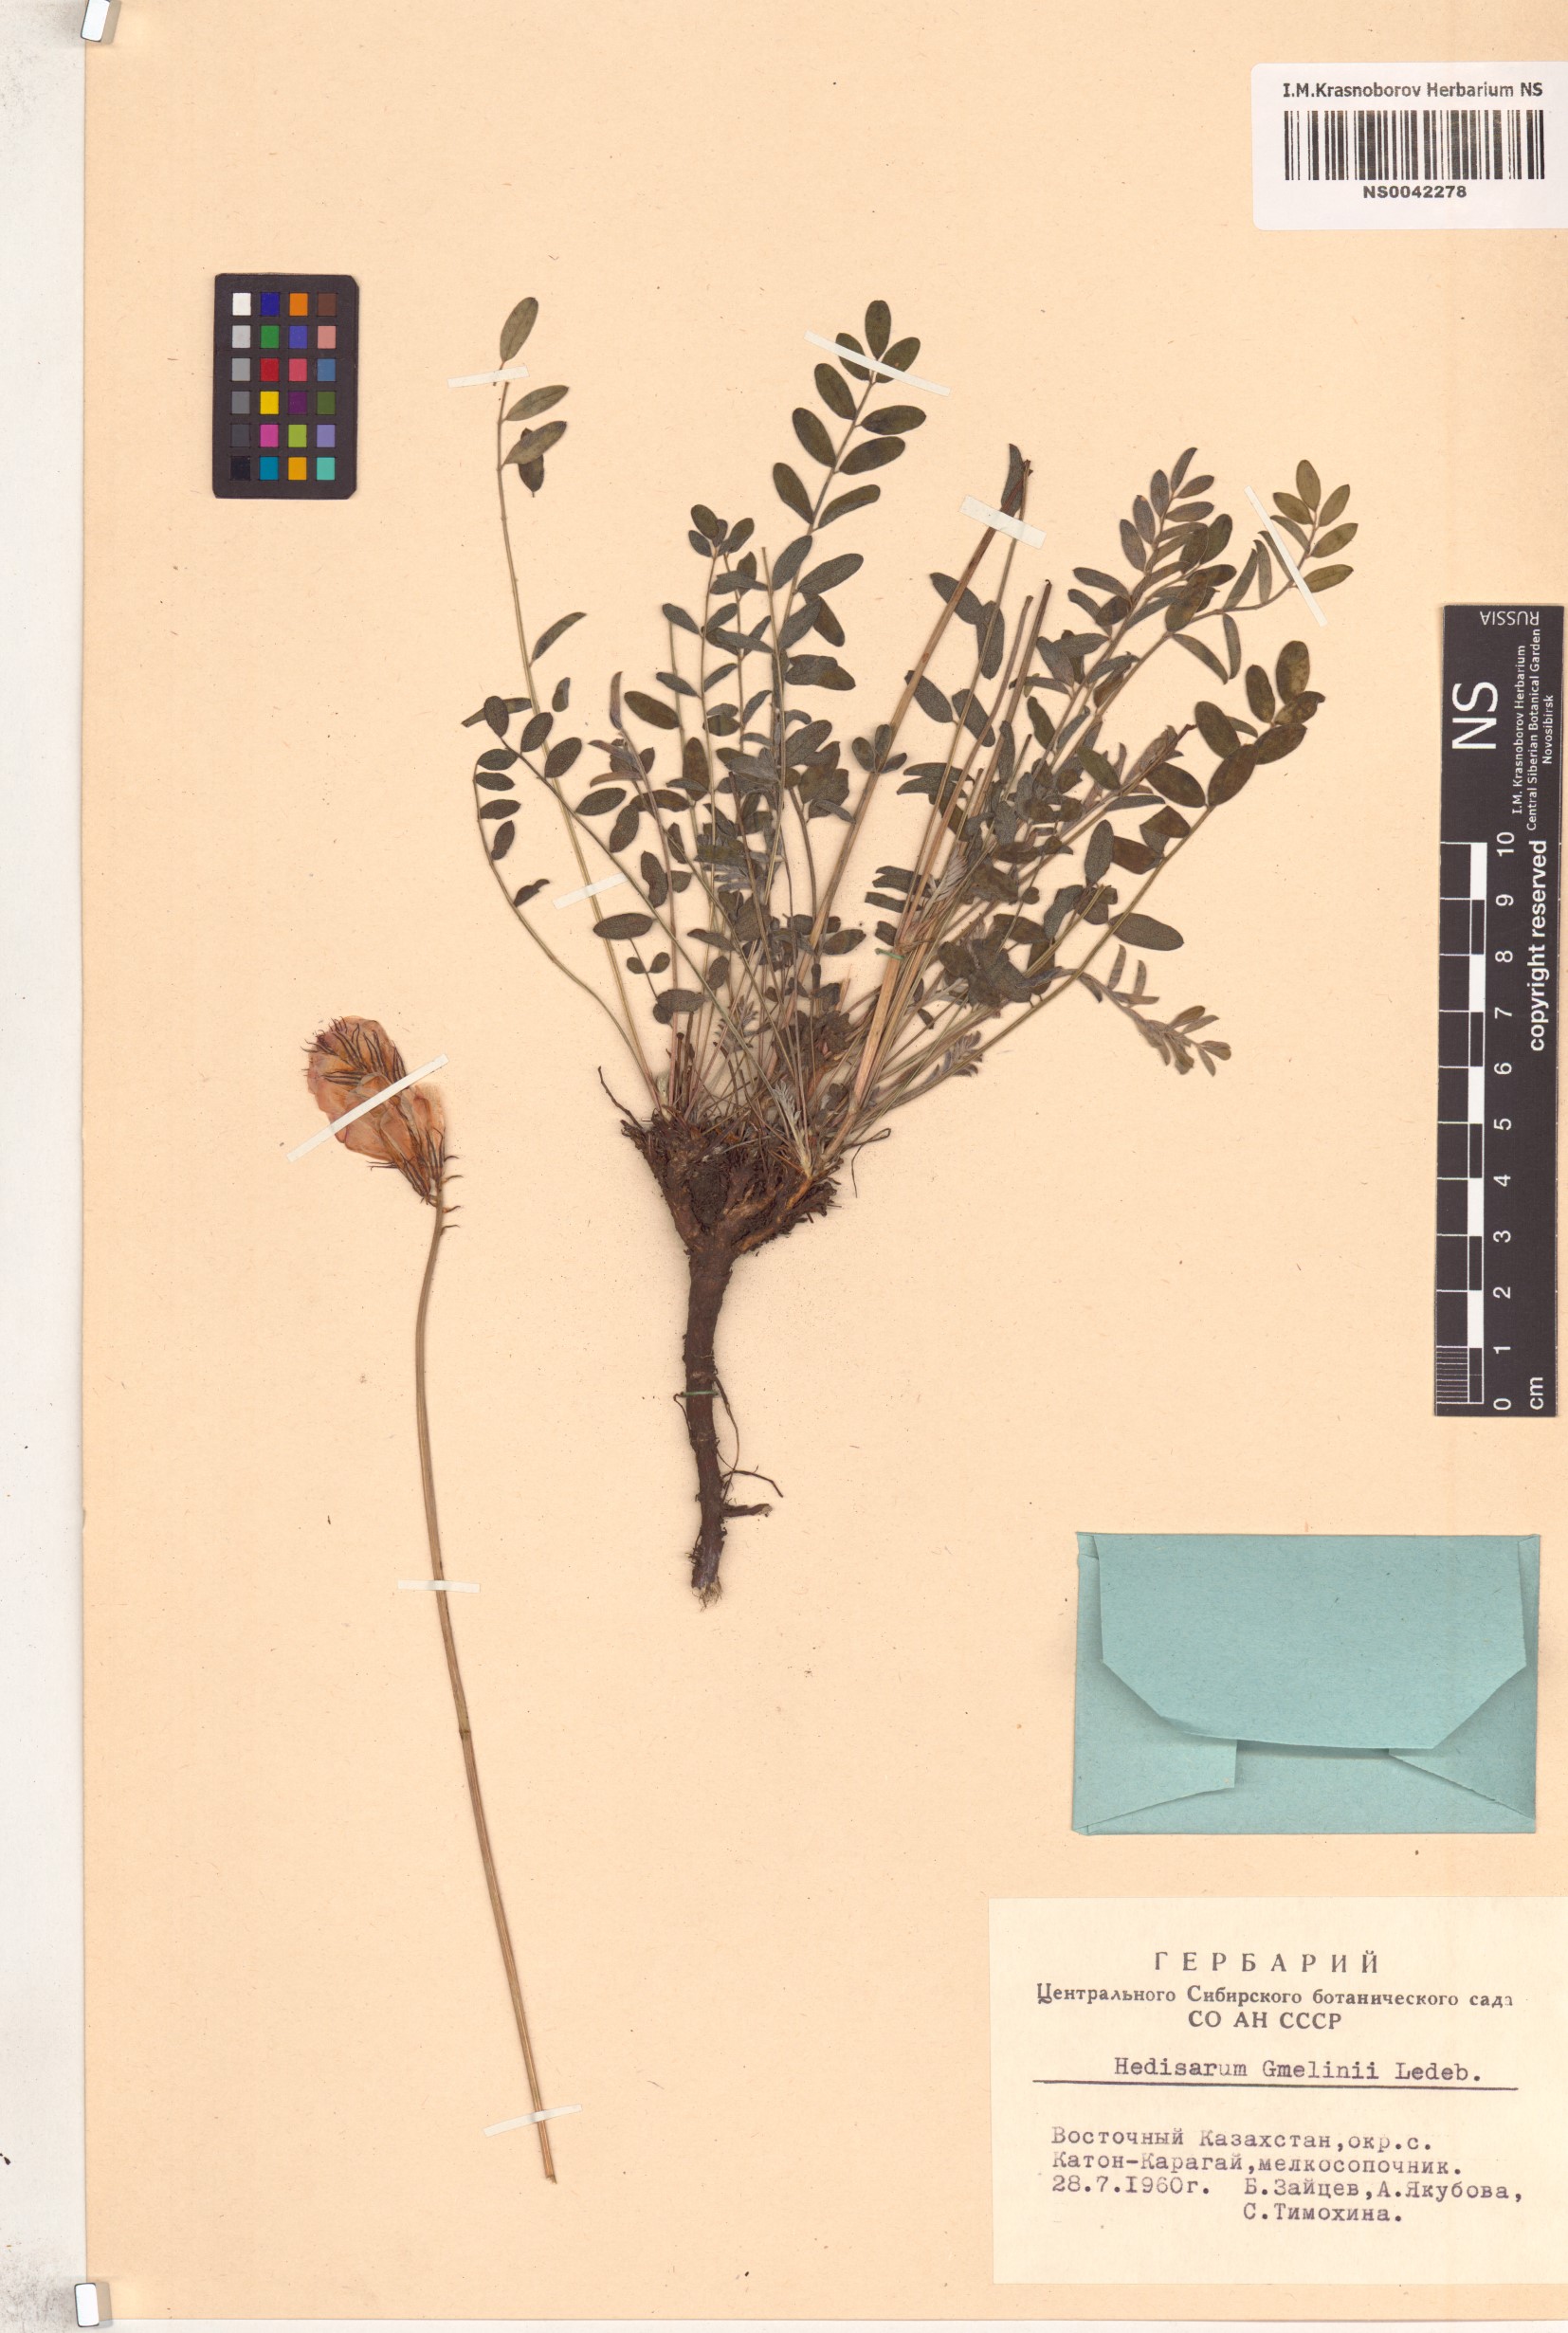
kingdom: Plantae
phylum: Tracheophyta
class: Magnoliopsida
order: Fabales
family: Fabaceae
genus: Hedysarum
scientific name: Hedysarum gmelinii
